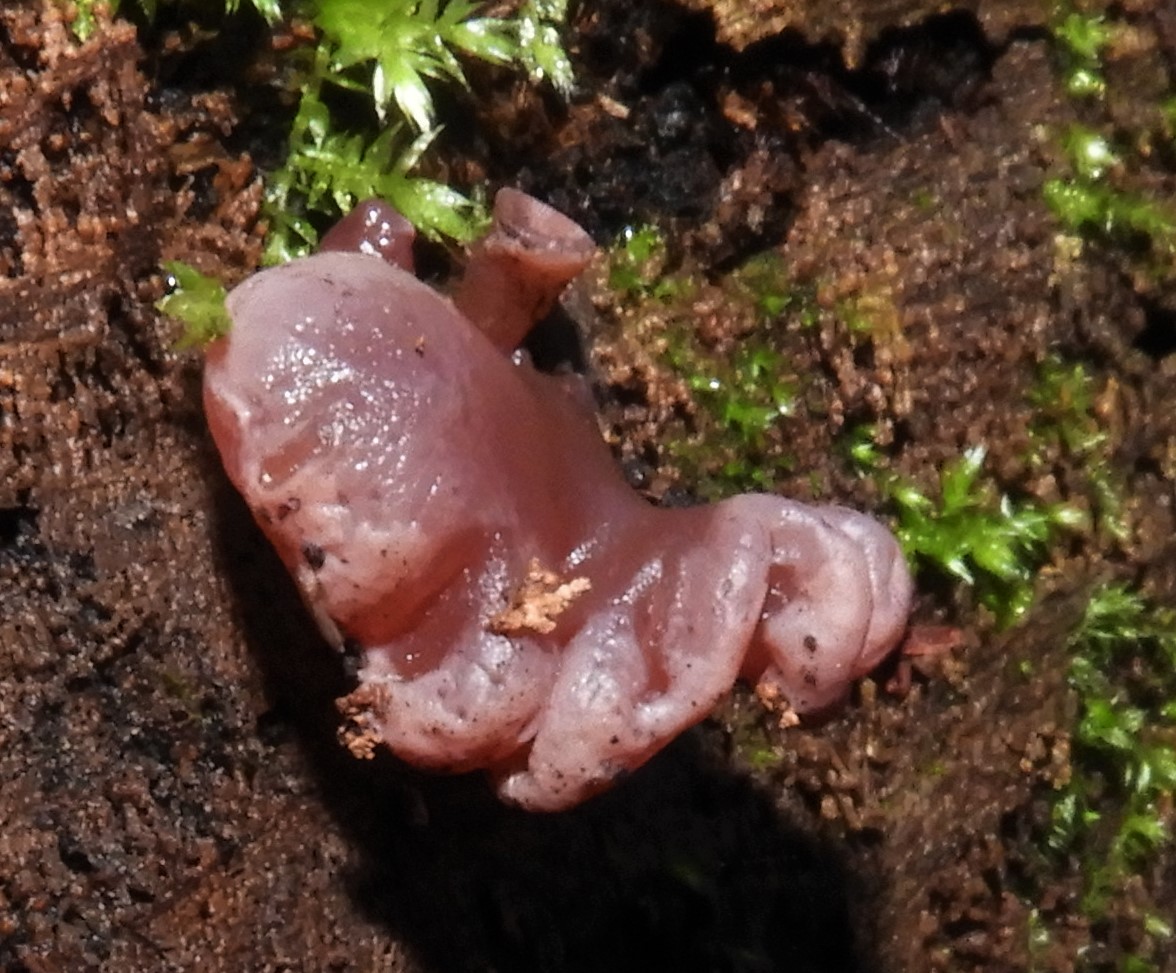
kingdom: Fungi
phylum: Ascomycota
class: Leotiomycetes
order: Helotiales
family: Gelatinodiscaceae
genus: Ascocoryne
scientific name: Ascocoryne sarcoides
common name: rødlilla sejskive
